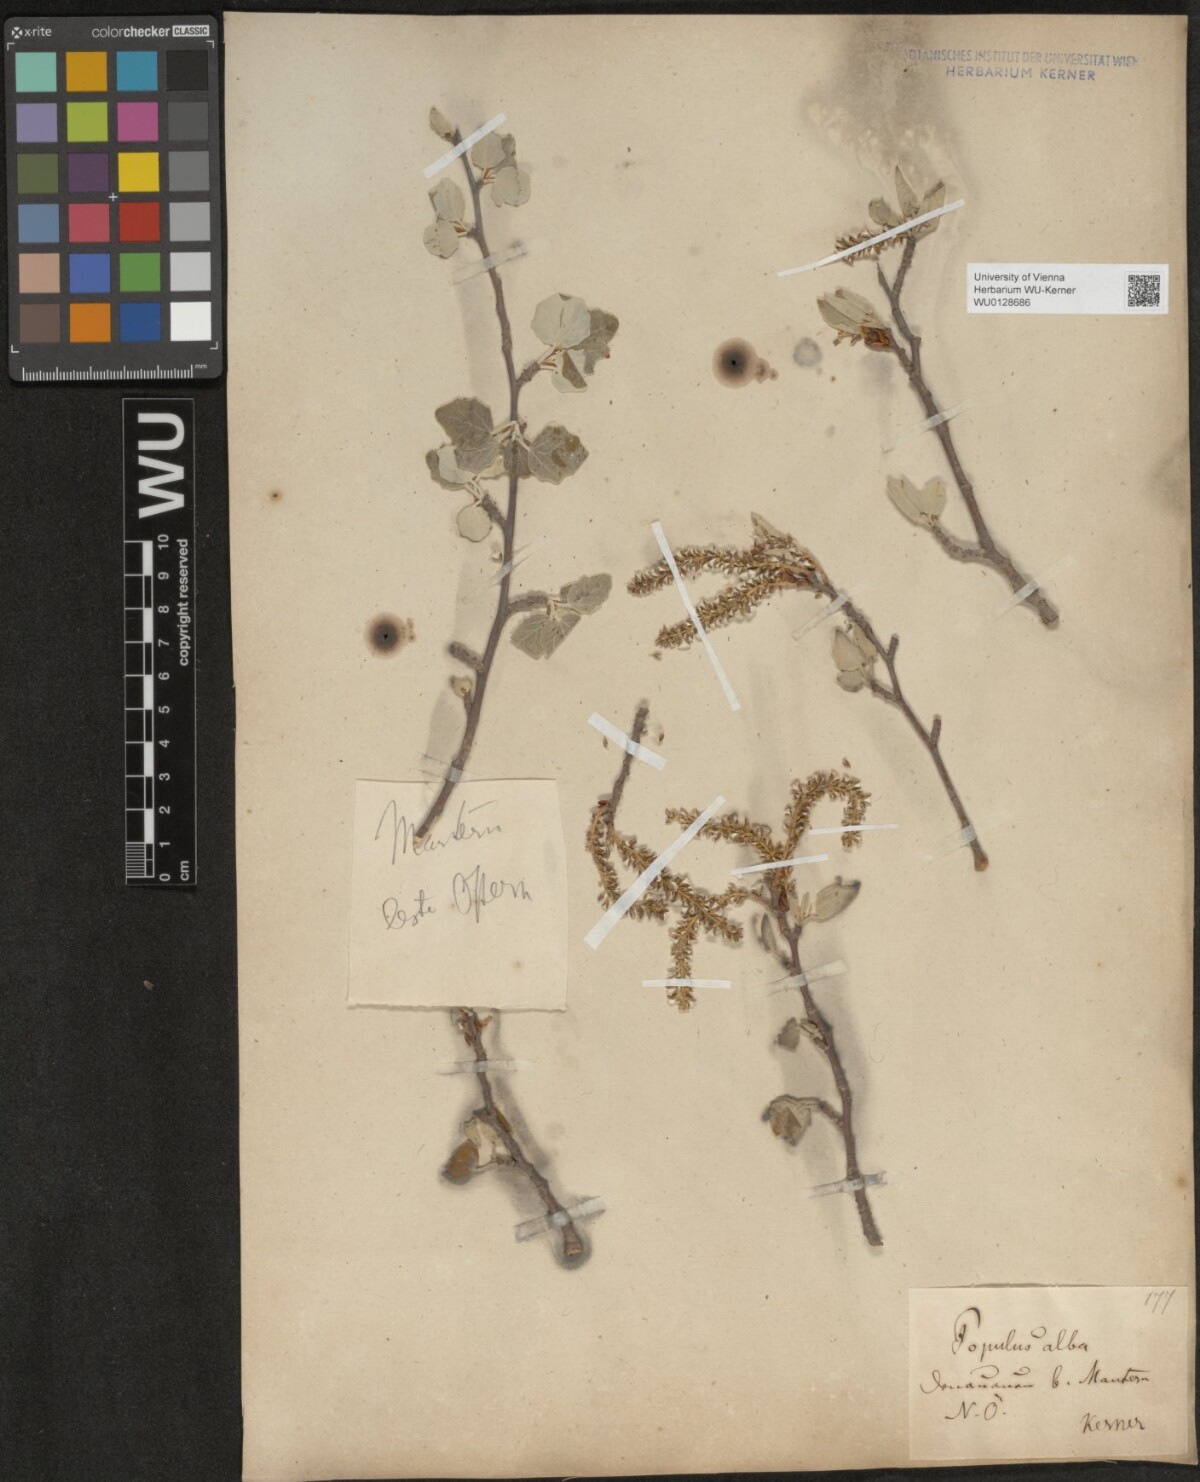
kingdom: Plantae
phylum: Tracheophyta
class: Magnoliopsida
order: Malpighiales
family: Salicaceae
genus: Populus
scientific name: Populus alba
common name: White poplar
